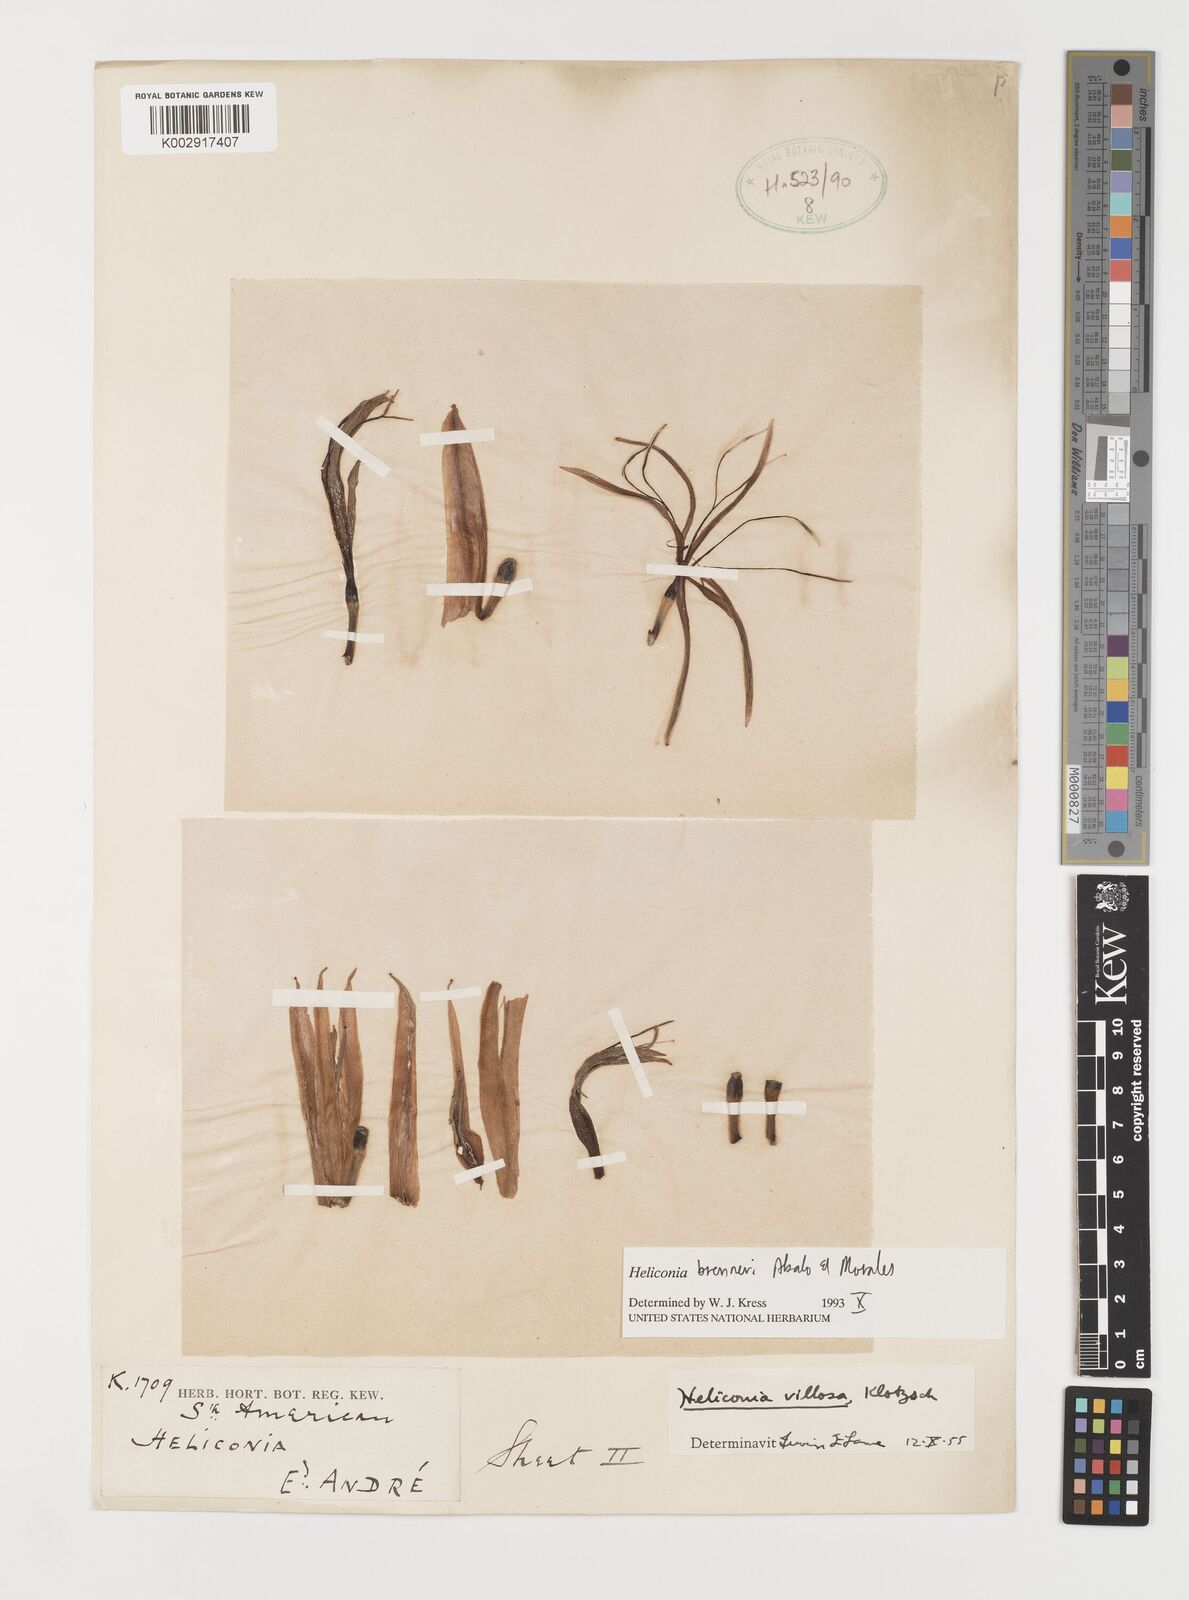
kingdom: Plantae
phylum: Tracheophyta
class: Liliopsida
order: Zingiberales
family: Heliconiaceae
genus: Heliconia
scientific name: Heliconia brenneri
